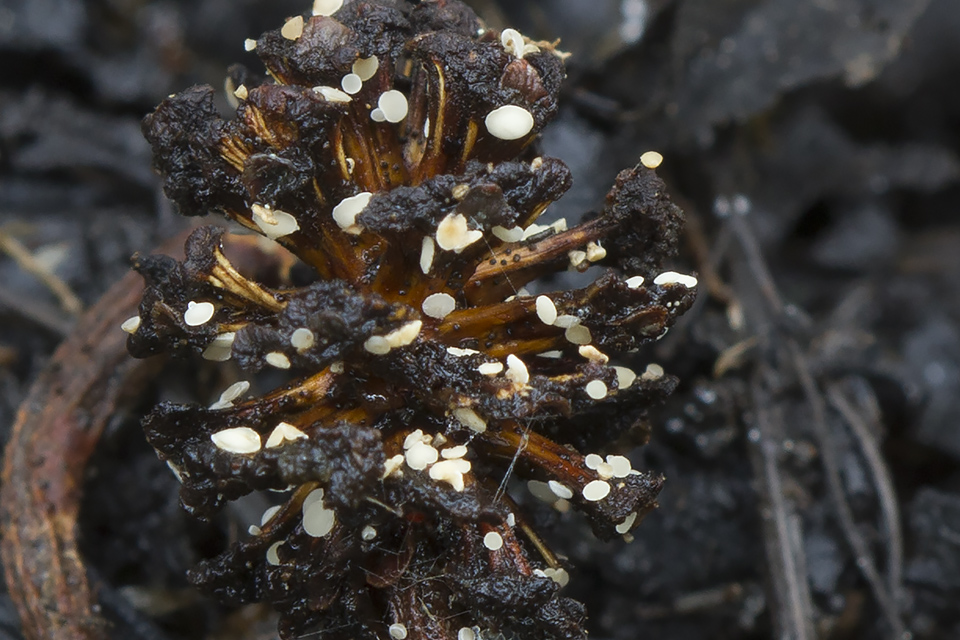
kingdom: Fungi
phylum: Ascomycota
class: Leotiomycetes
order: Helotiales
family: Pezizellaceae
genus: Calycina
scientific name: Calycina alniella
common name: ellekogle-stilkskive
